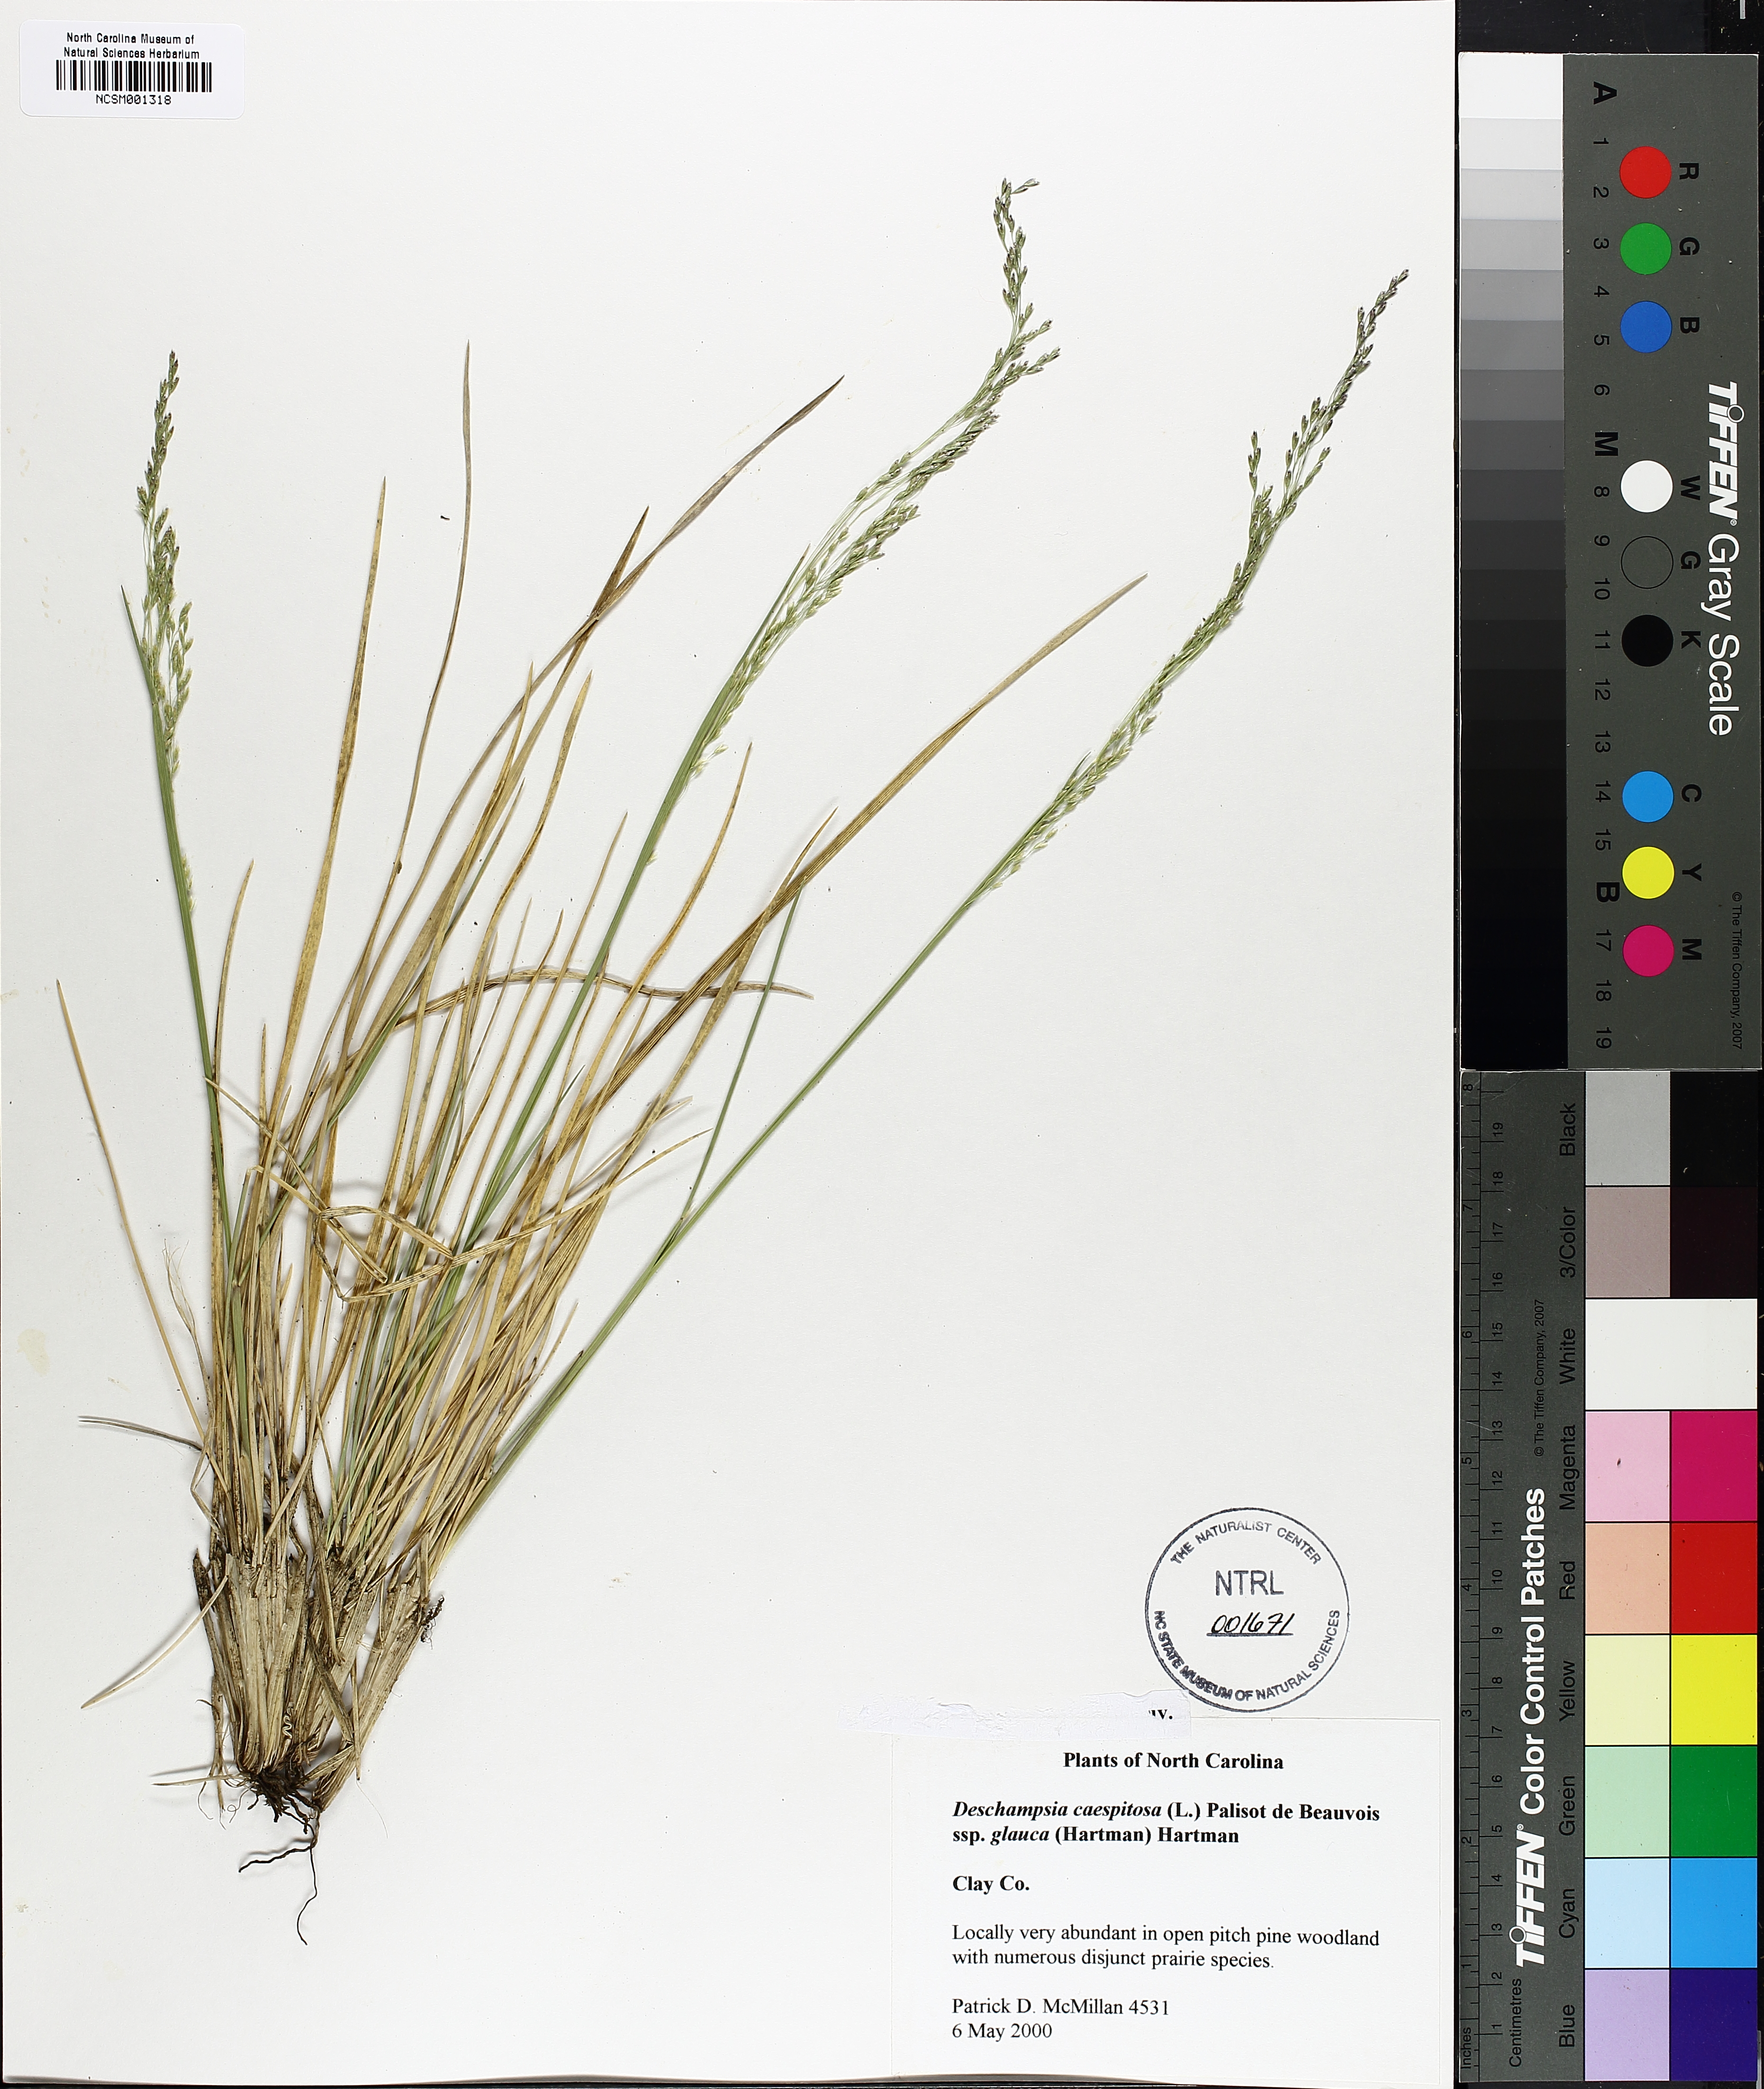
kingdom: Plantae
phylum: Tracheophyta
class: Liliopsida
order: Poales
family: Poaceae
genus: Deschampsia
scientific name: Deschampsia cespitosa
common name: Tufted hair-grass
